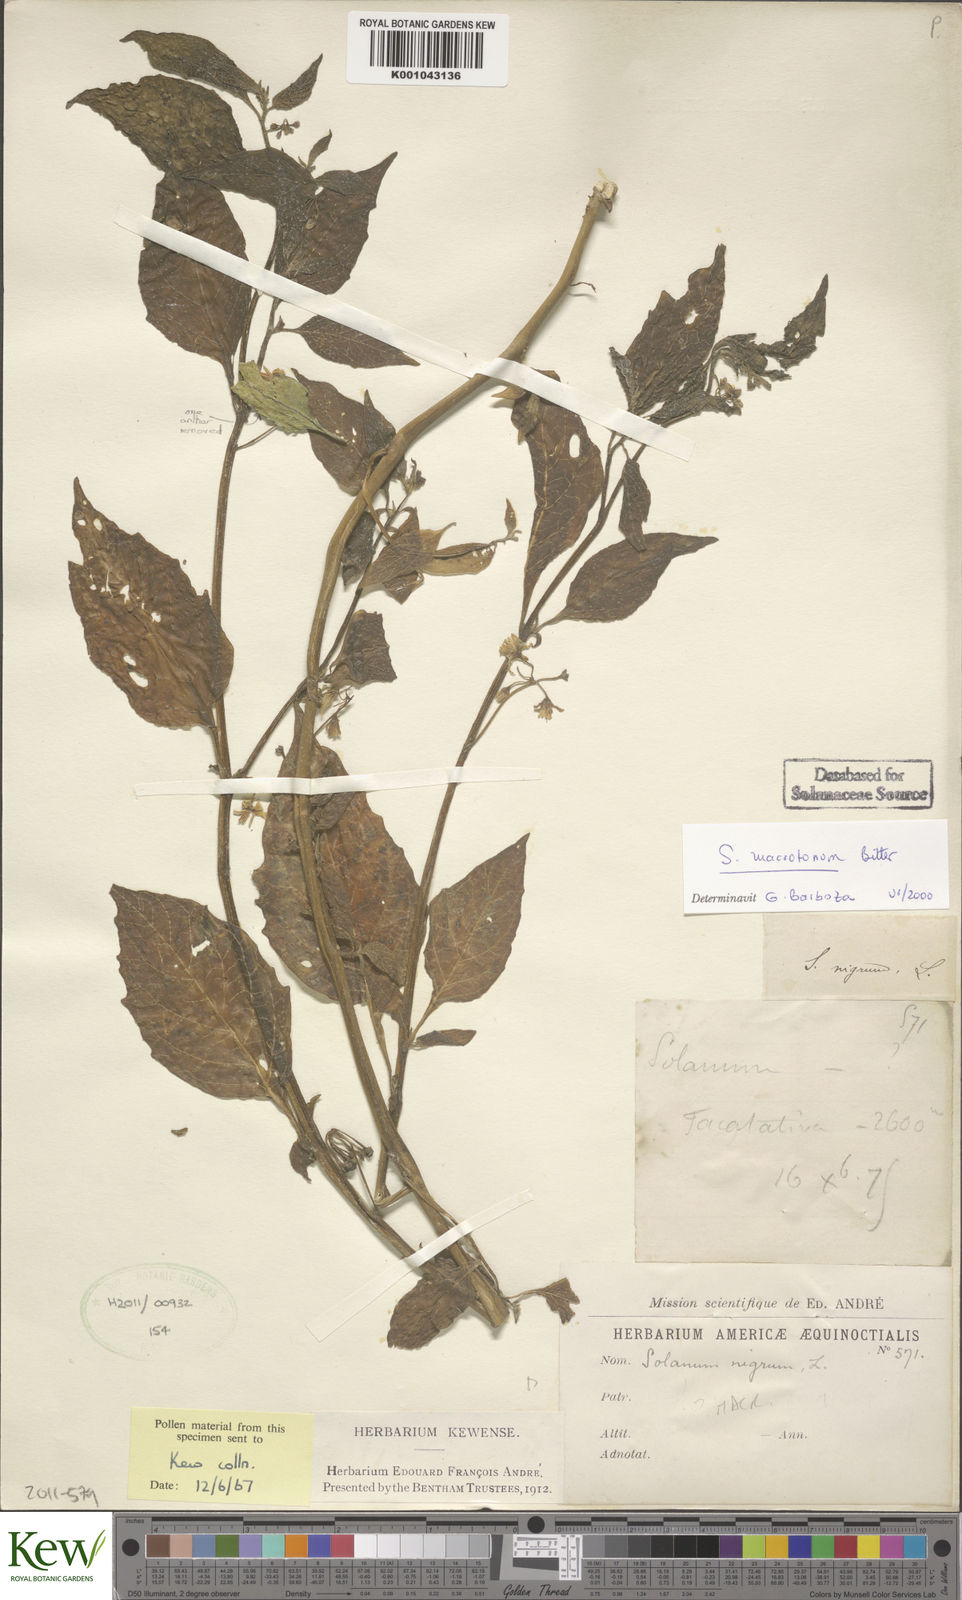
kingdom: Plantae
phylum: Tracheophyta
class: Magnoliopsida
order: Solanales
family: Solanaceae
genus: Solanum
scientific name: Solanum macrotonum
